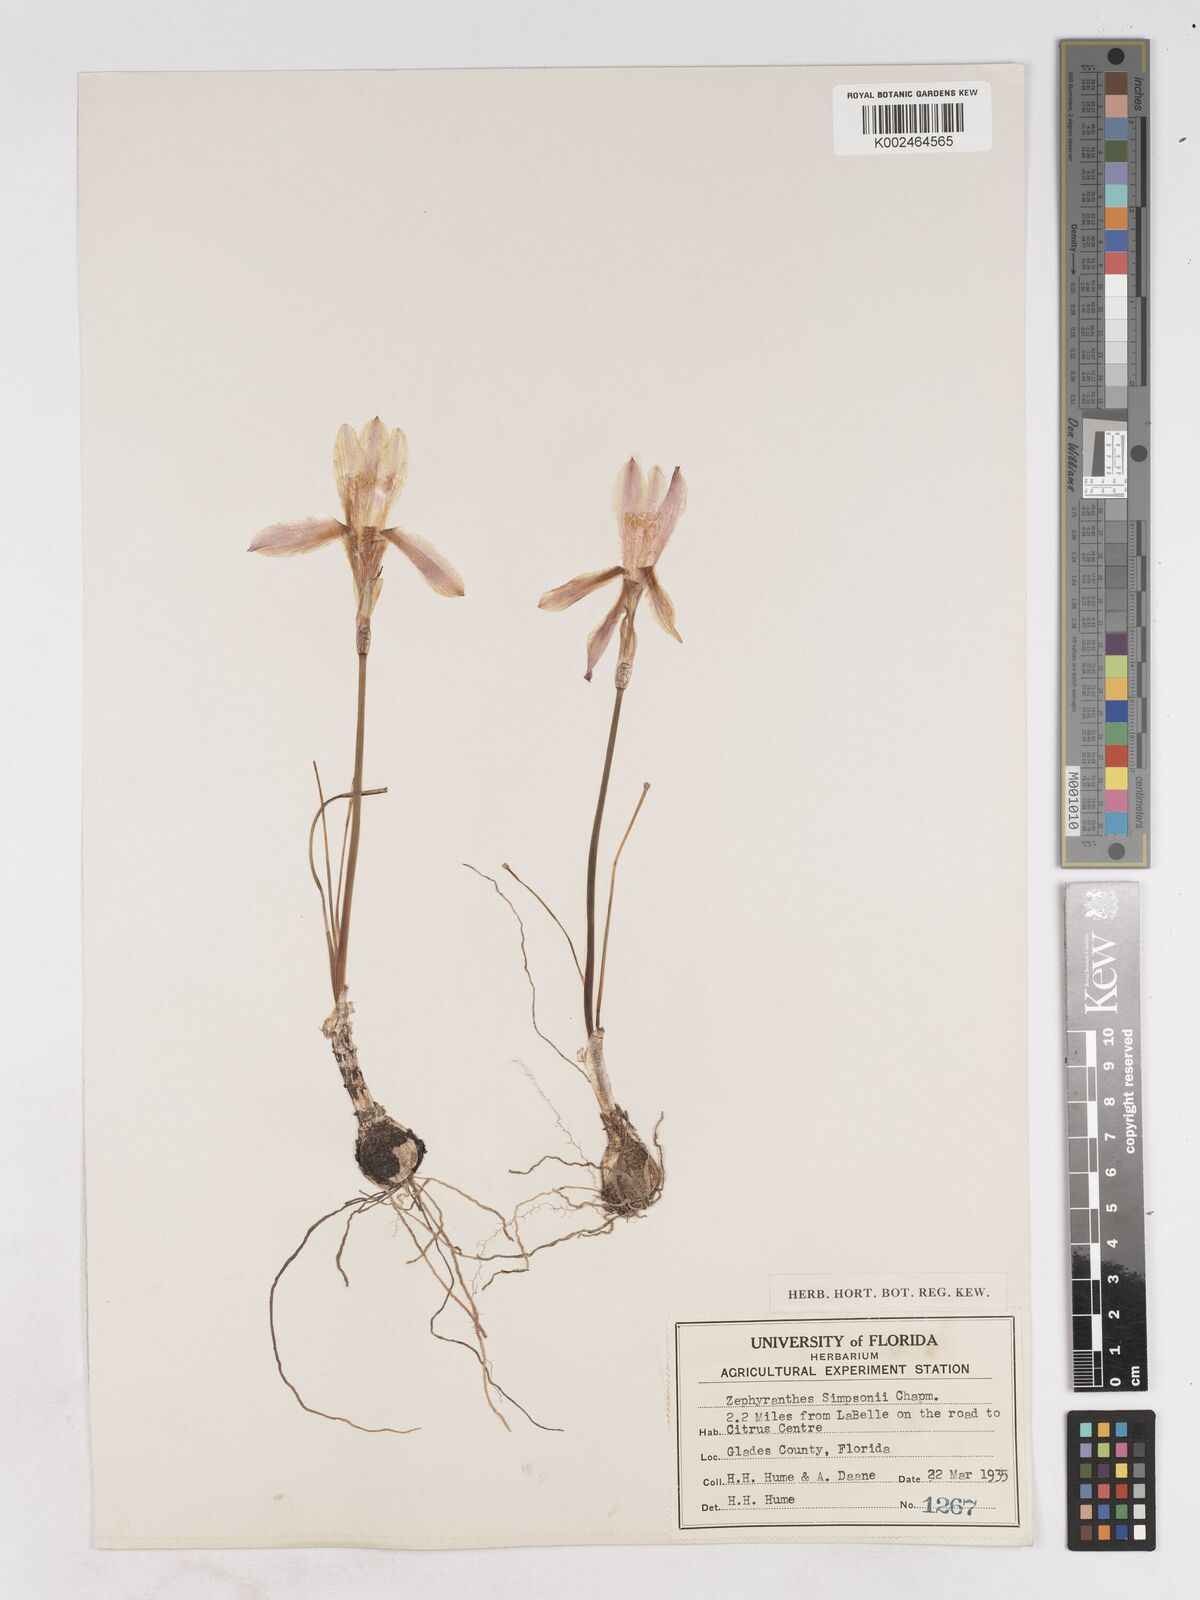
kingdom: Plantae
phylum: Tracheophyta
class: Liliopsida
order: Asparagales
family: Amaryllidaceae
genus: Zephyranthes
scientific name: Zephyranthes simpsonii
